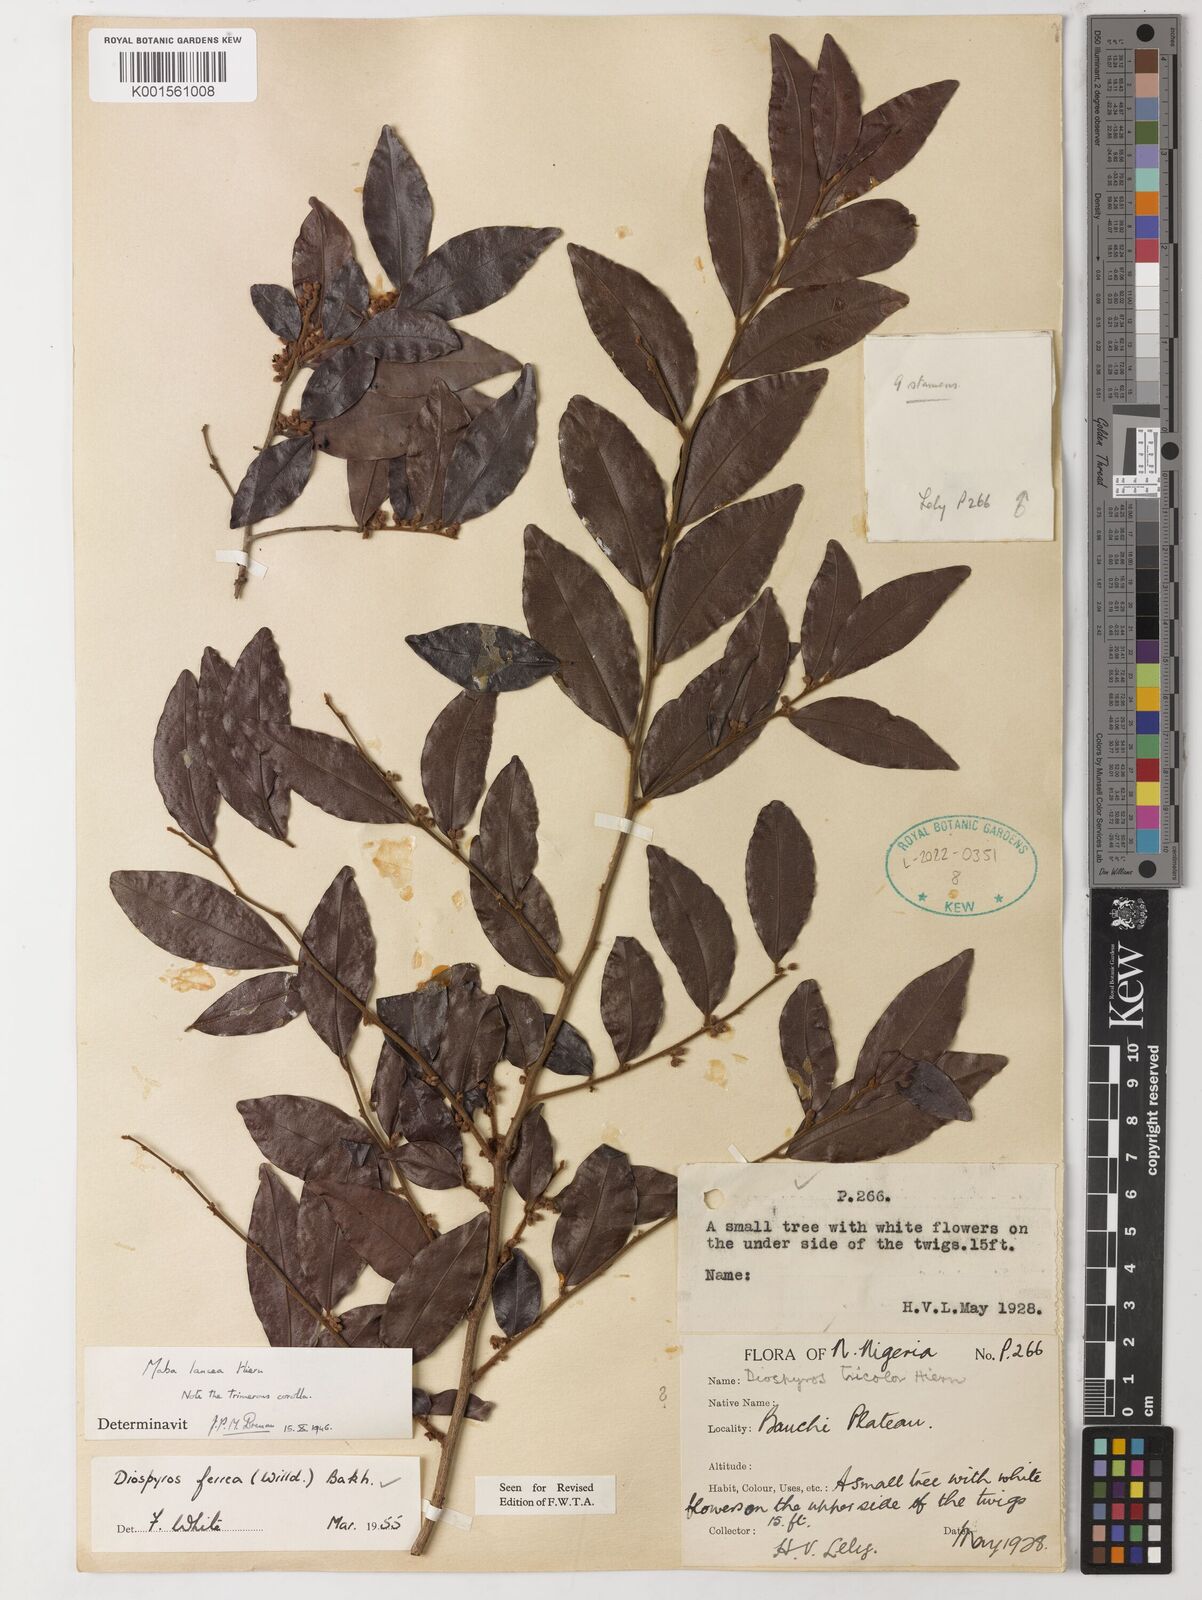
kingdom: Plantae
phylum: Tracheophyta
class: Magnoliopsida
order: Ericales
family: Ebenaceae
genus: Diospyros
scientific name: Diospyros ferrea
